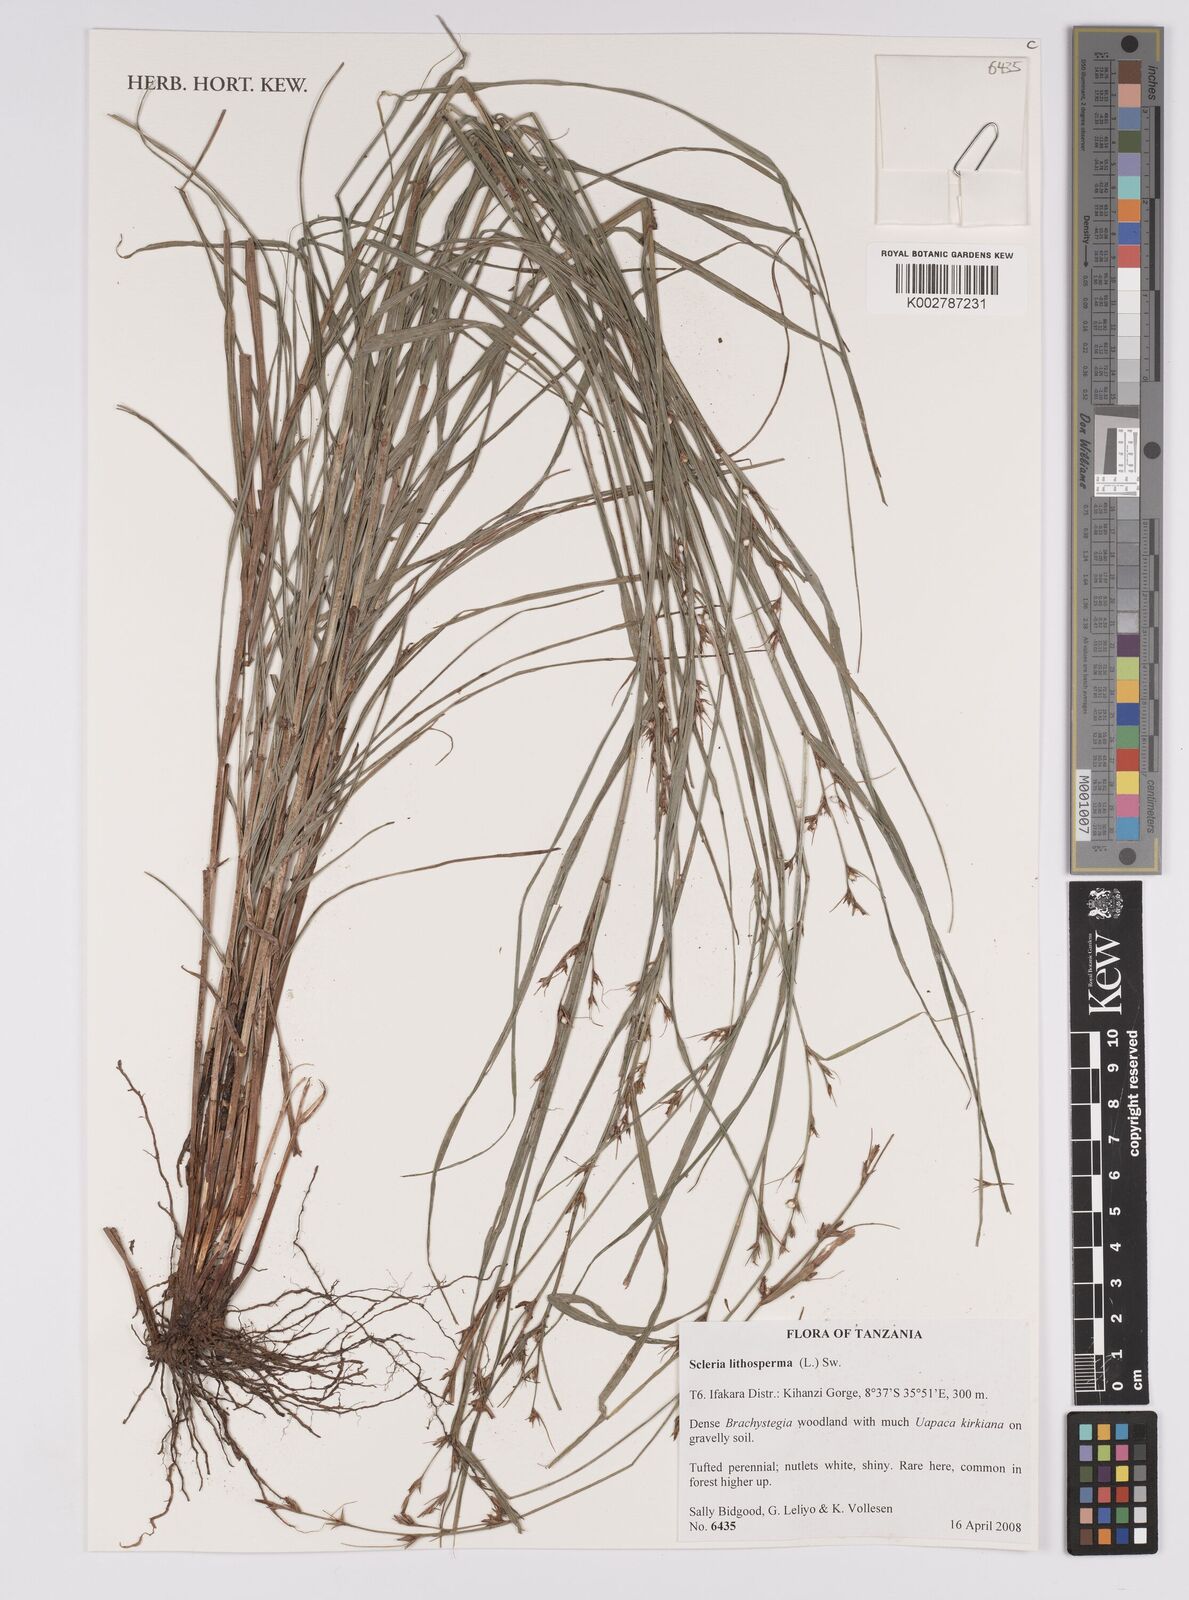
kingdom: Plantae
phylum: Tracheophyta
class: Liliopsida
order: Poales
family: Cyperaceae
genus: Scleria
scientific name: Scleria lithosperma
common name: Florida keys nut-rush
